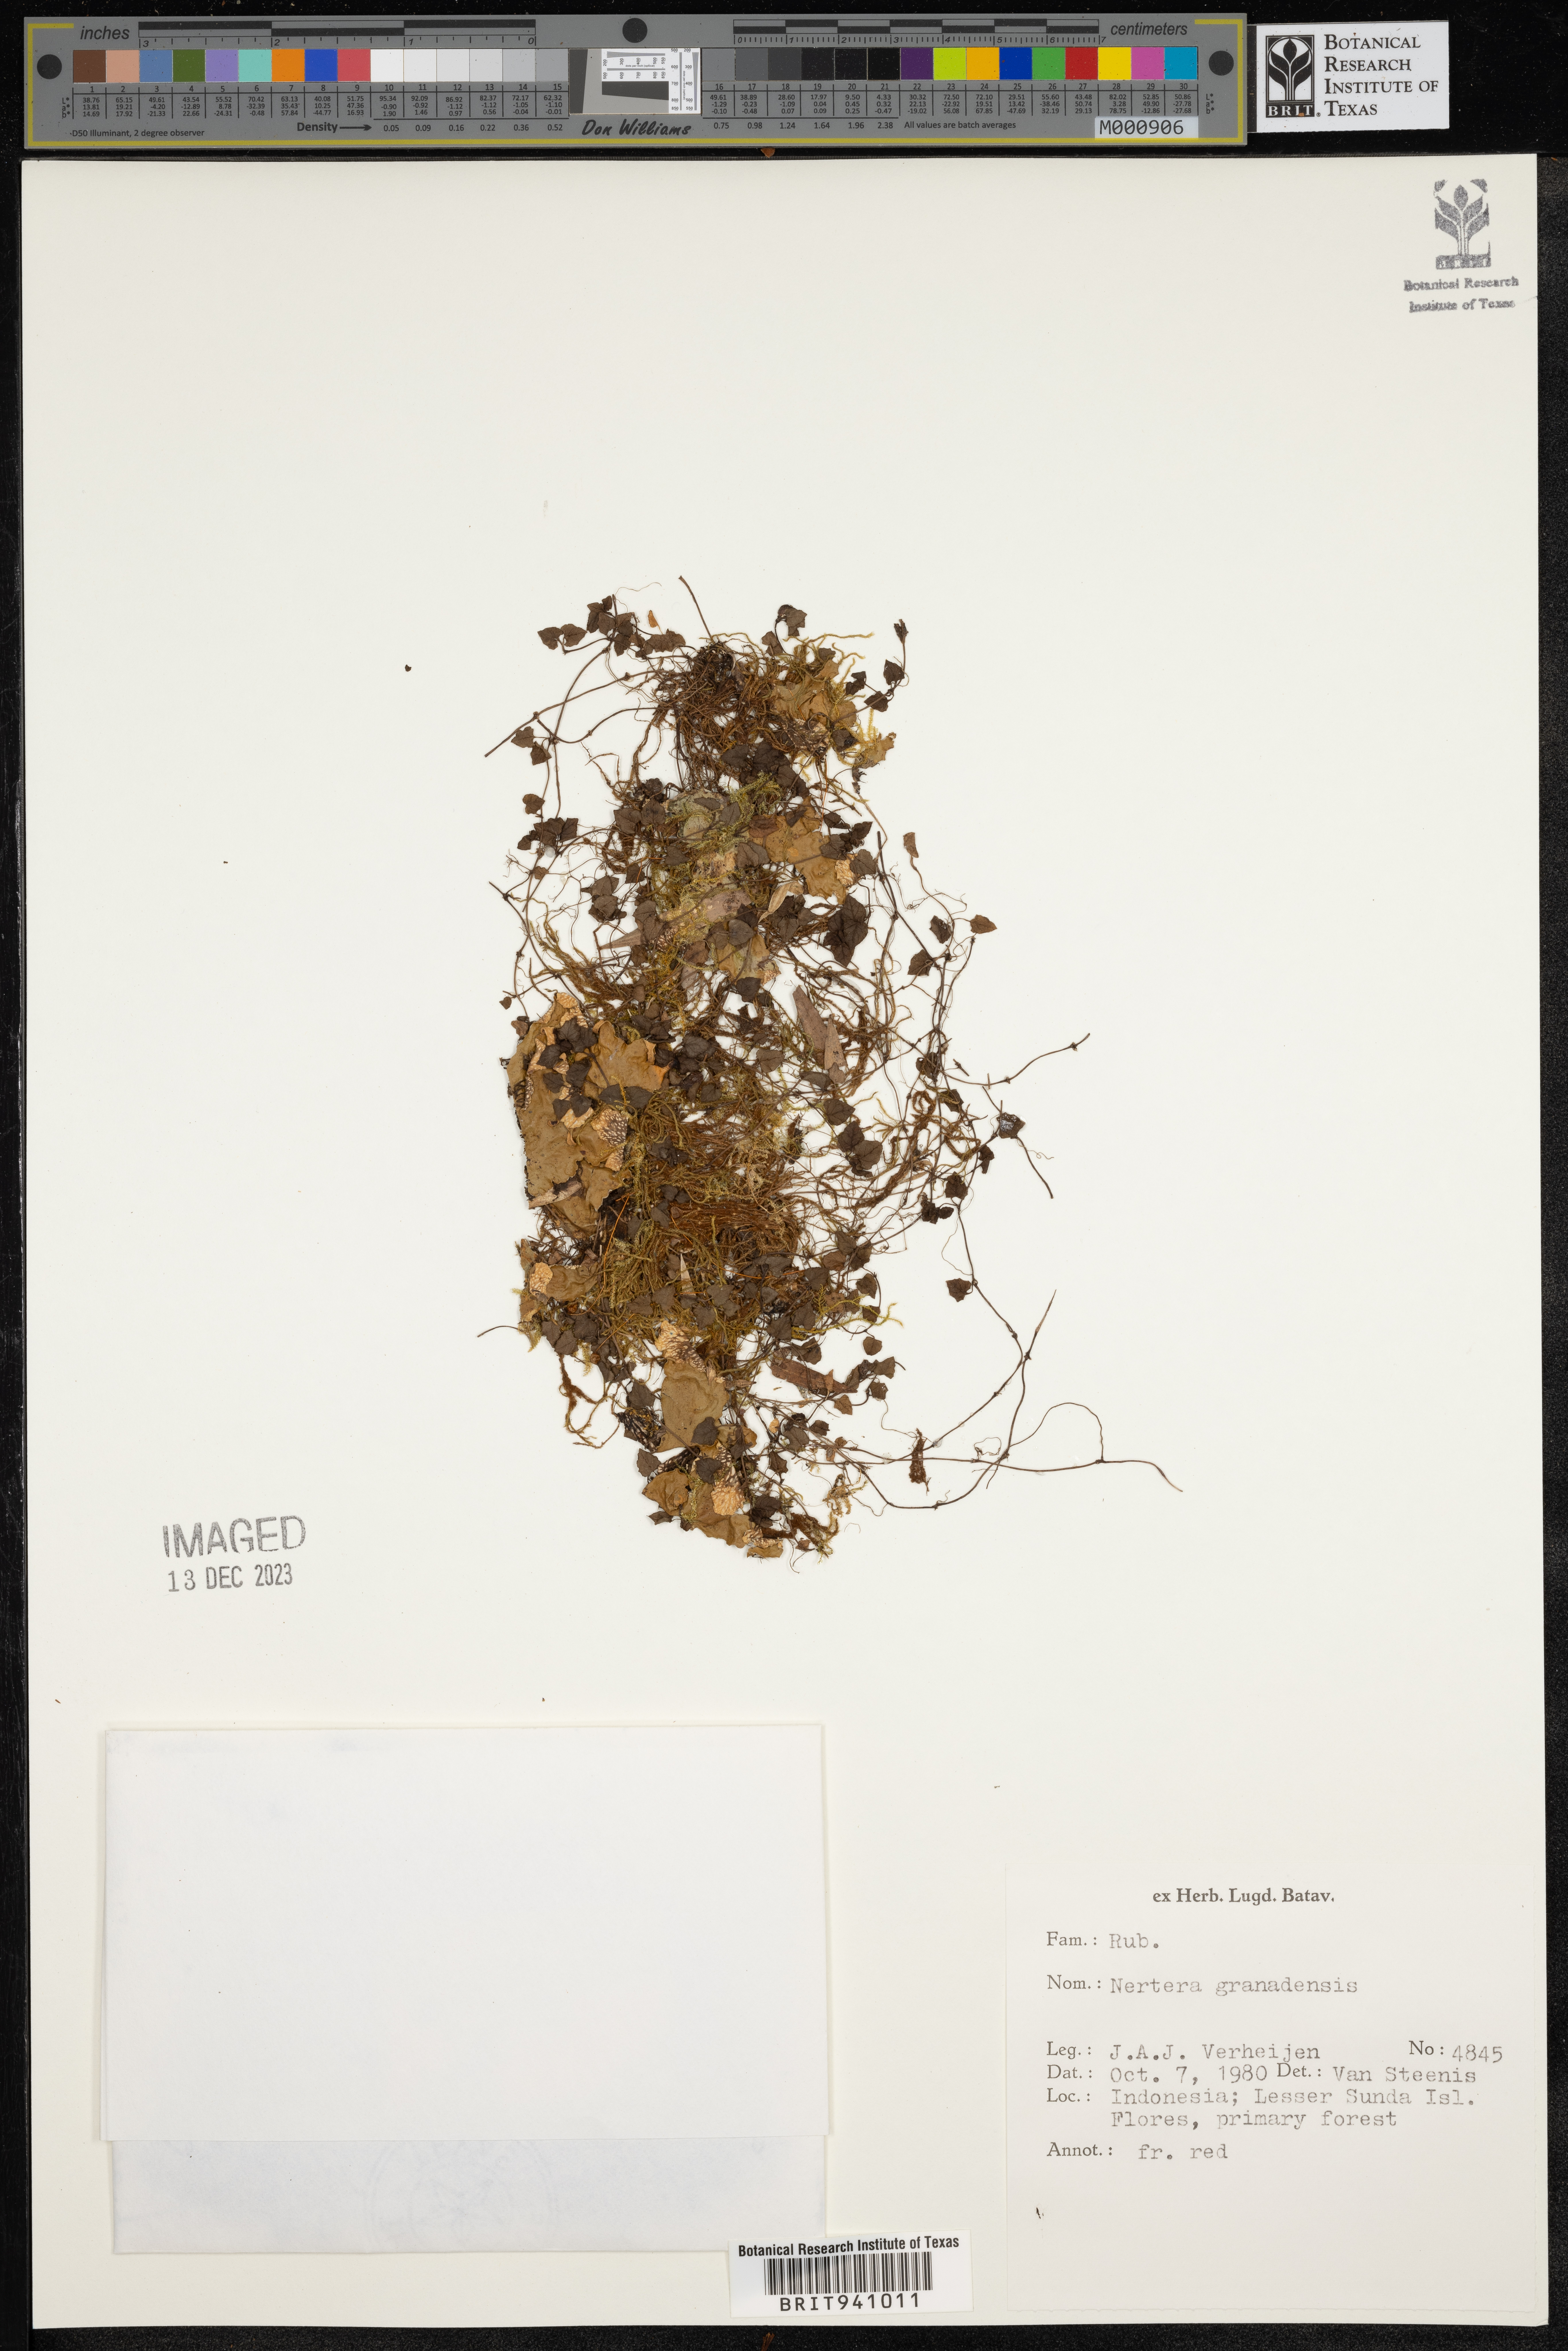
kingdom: Plantae
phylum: Tracheophyta
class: Magnoliopsida
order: Gentianales
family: Rubiaceae
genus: Nertera
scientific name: Nertera
